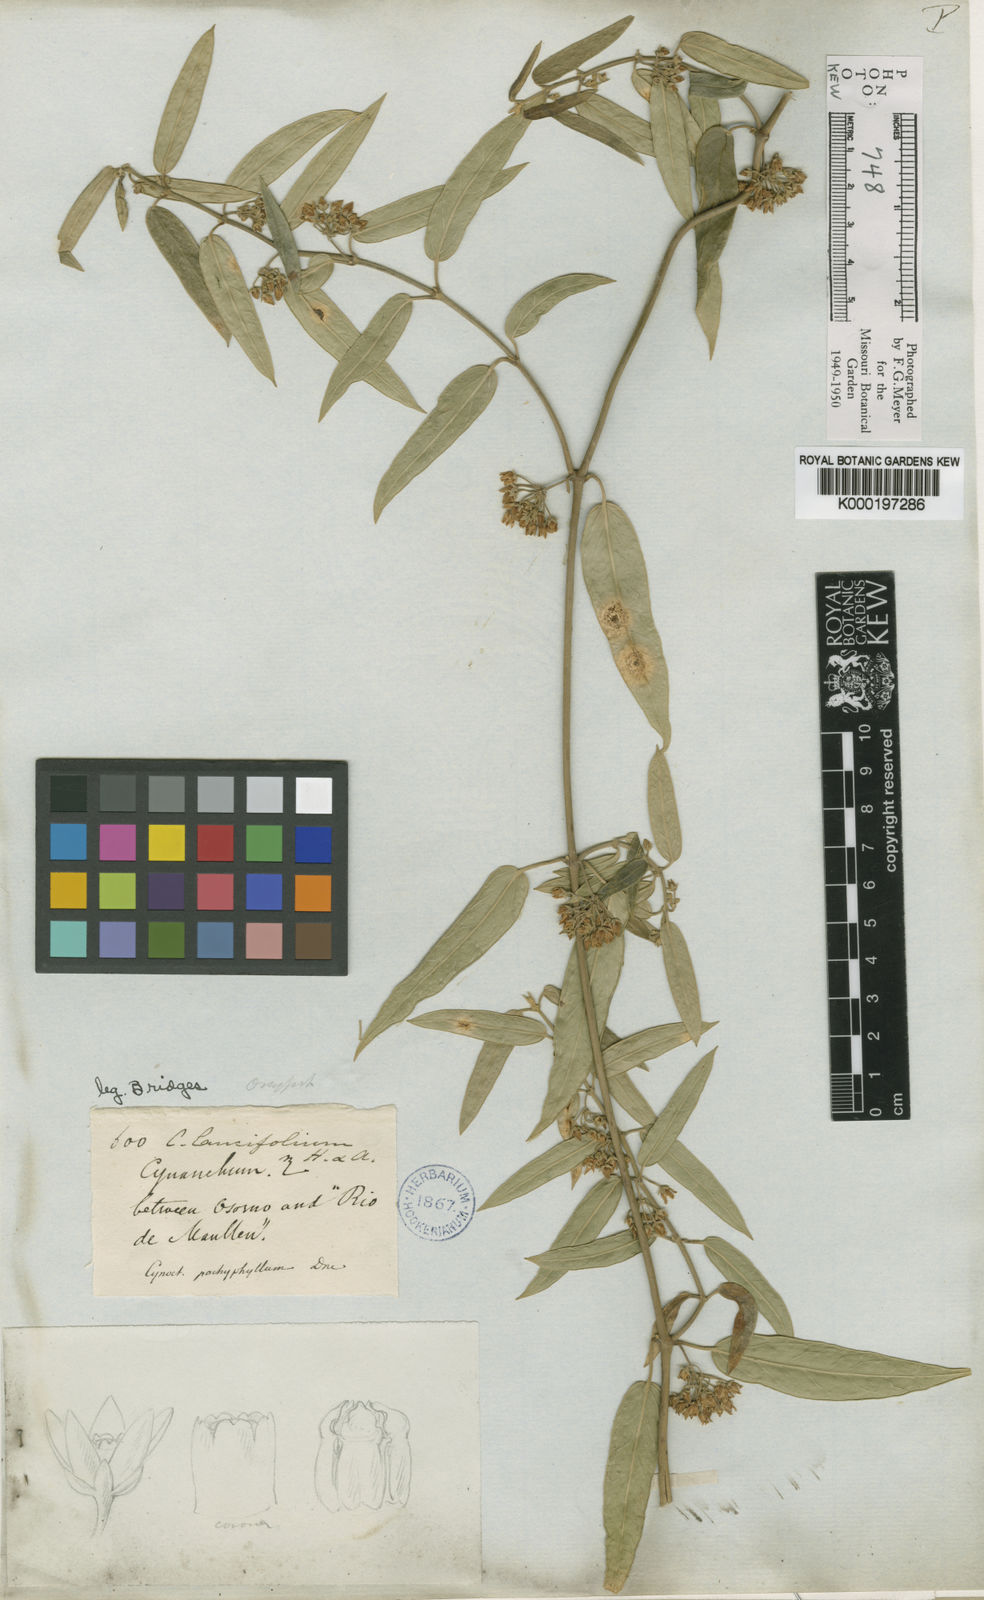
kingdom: Plantae
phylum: Tracheophyta
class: Magnoliopsida
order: Gentianales
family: Apocynaceae
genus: Diplolepis
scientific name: Diplolepis pachyphylla
